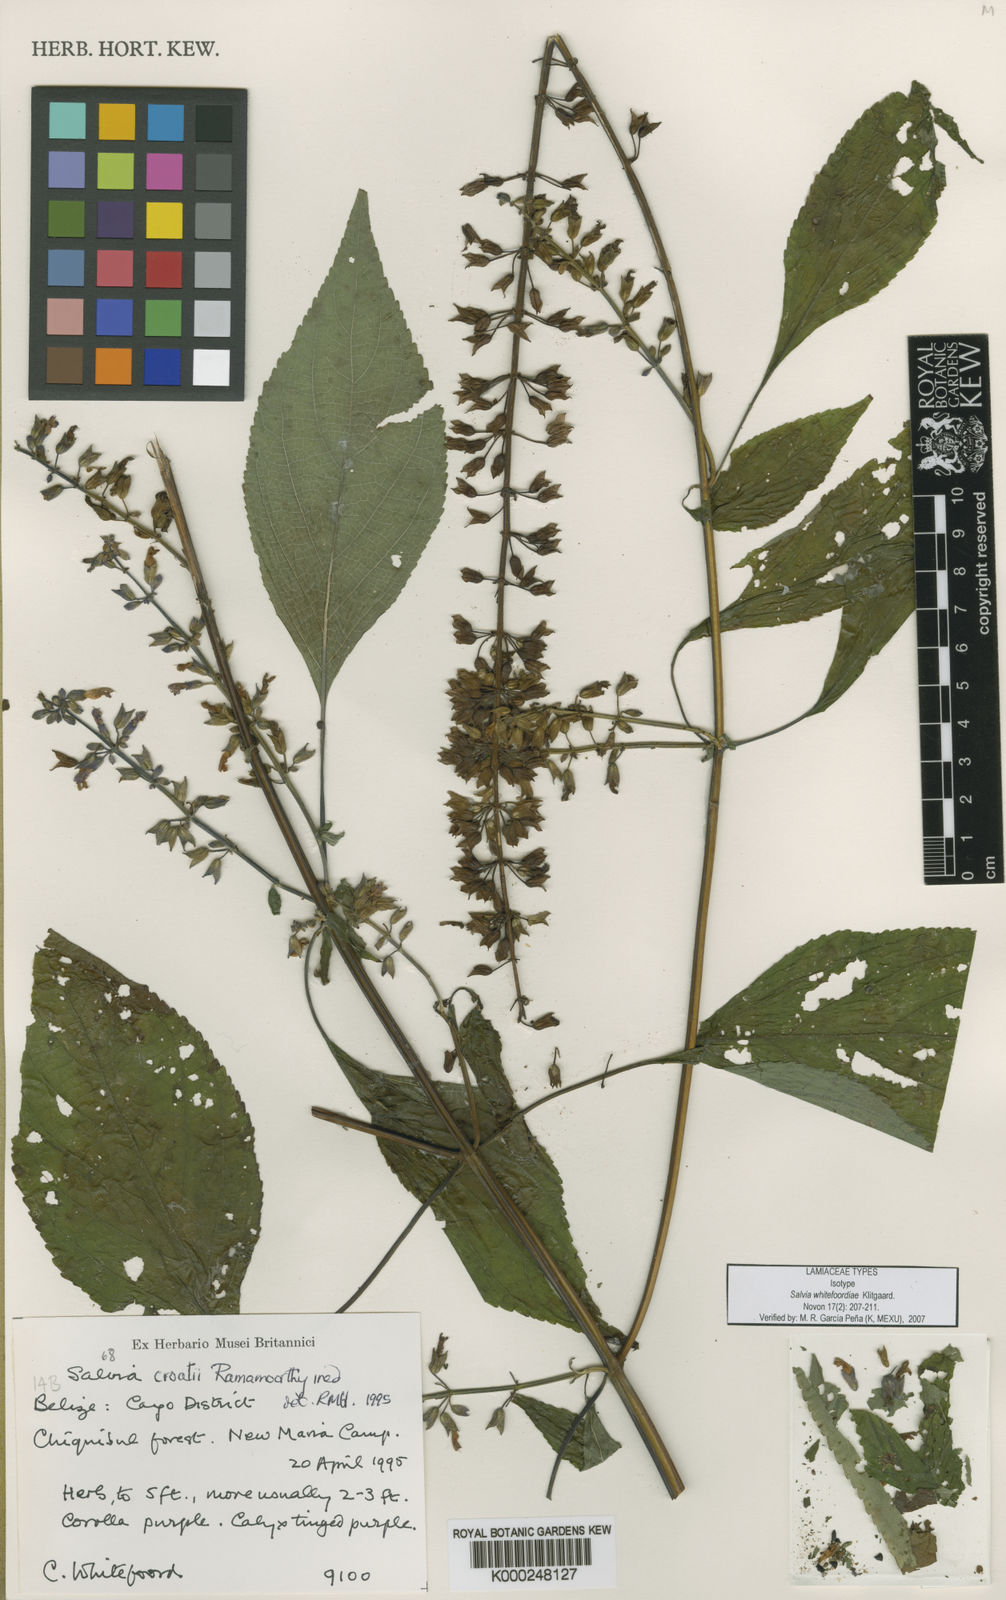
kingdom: Plantae
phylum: Tracheophyta
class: Magnoliopsida
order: Lamiales
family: Lamiaceae
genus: Salvia
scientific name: Salvia
